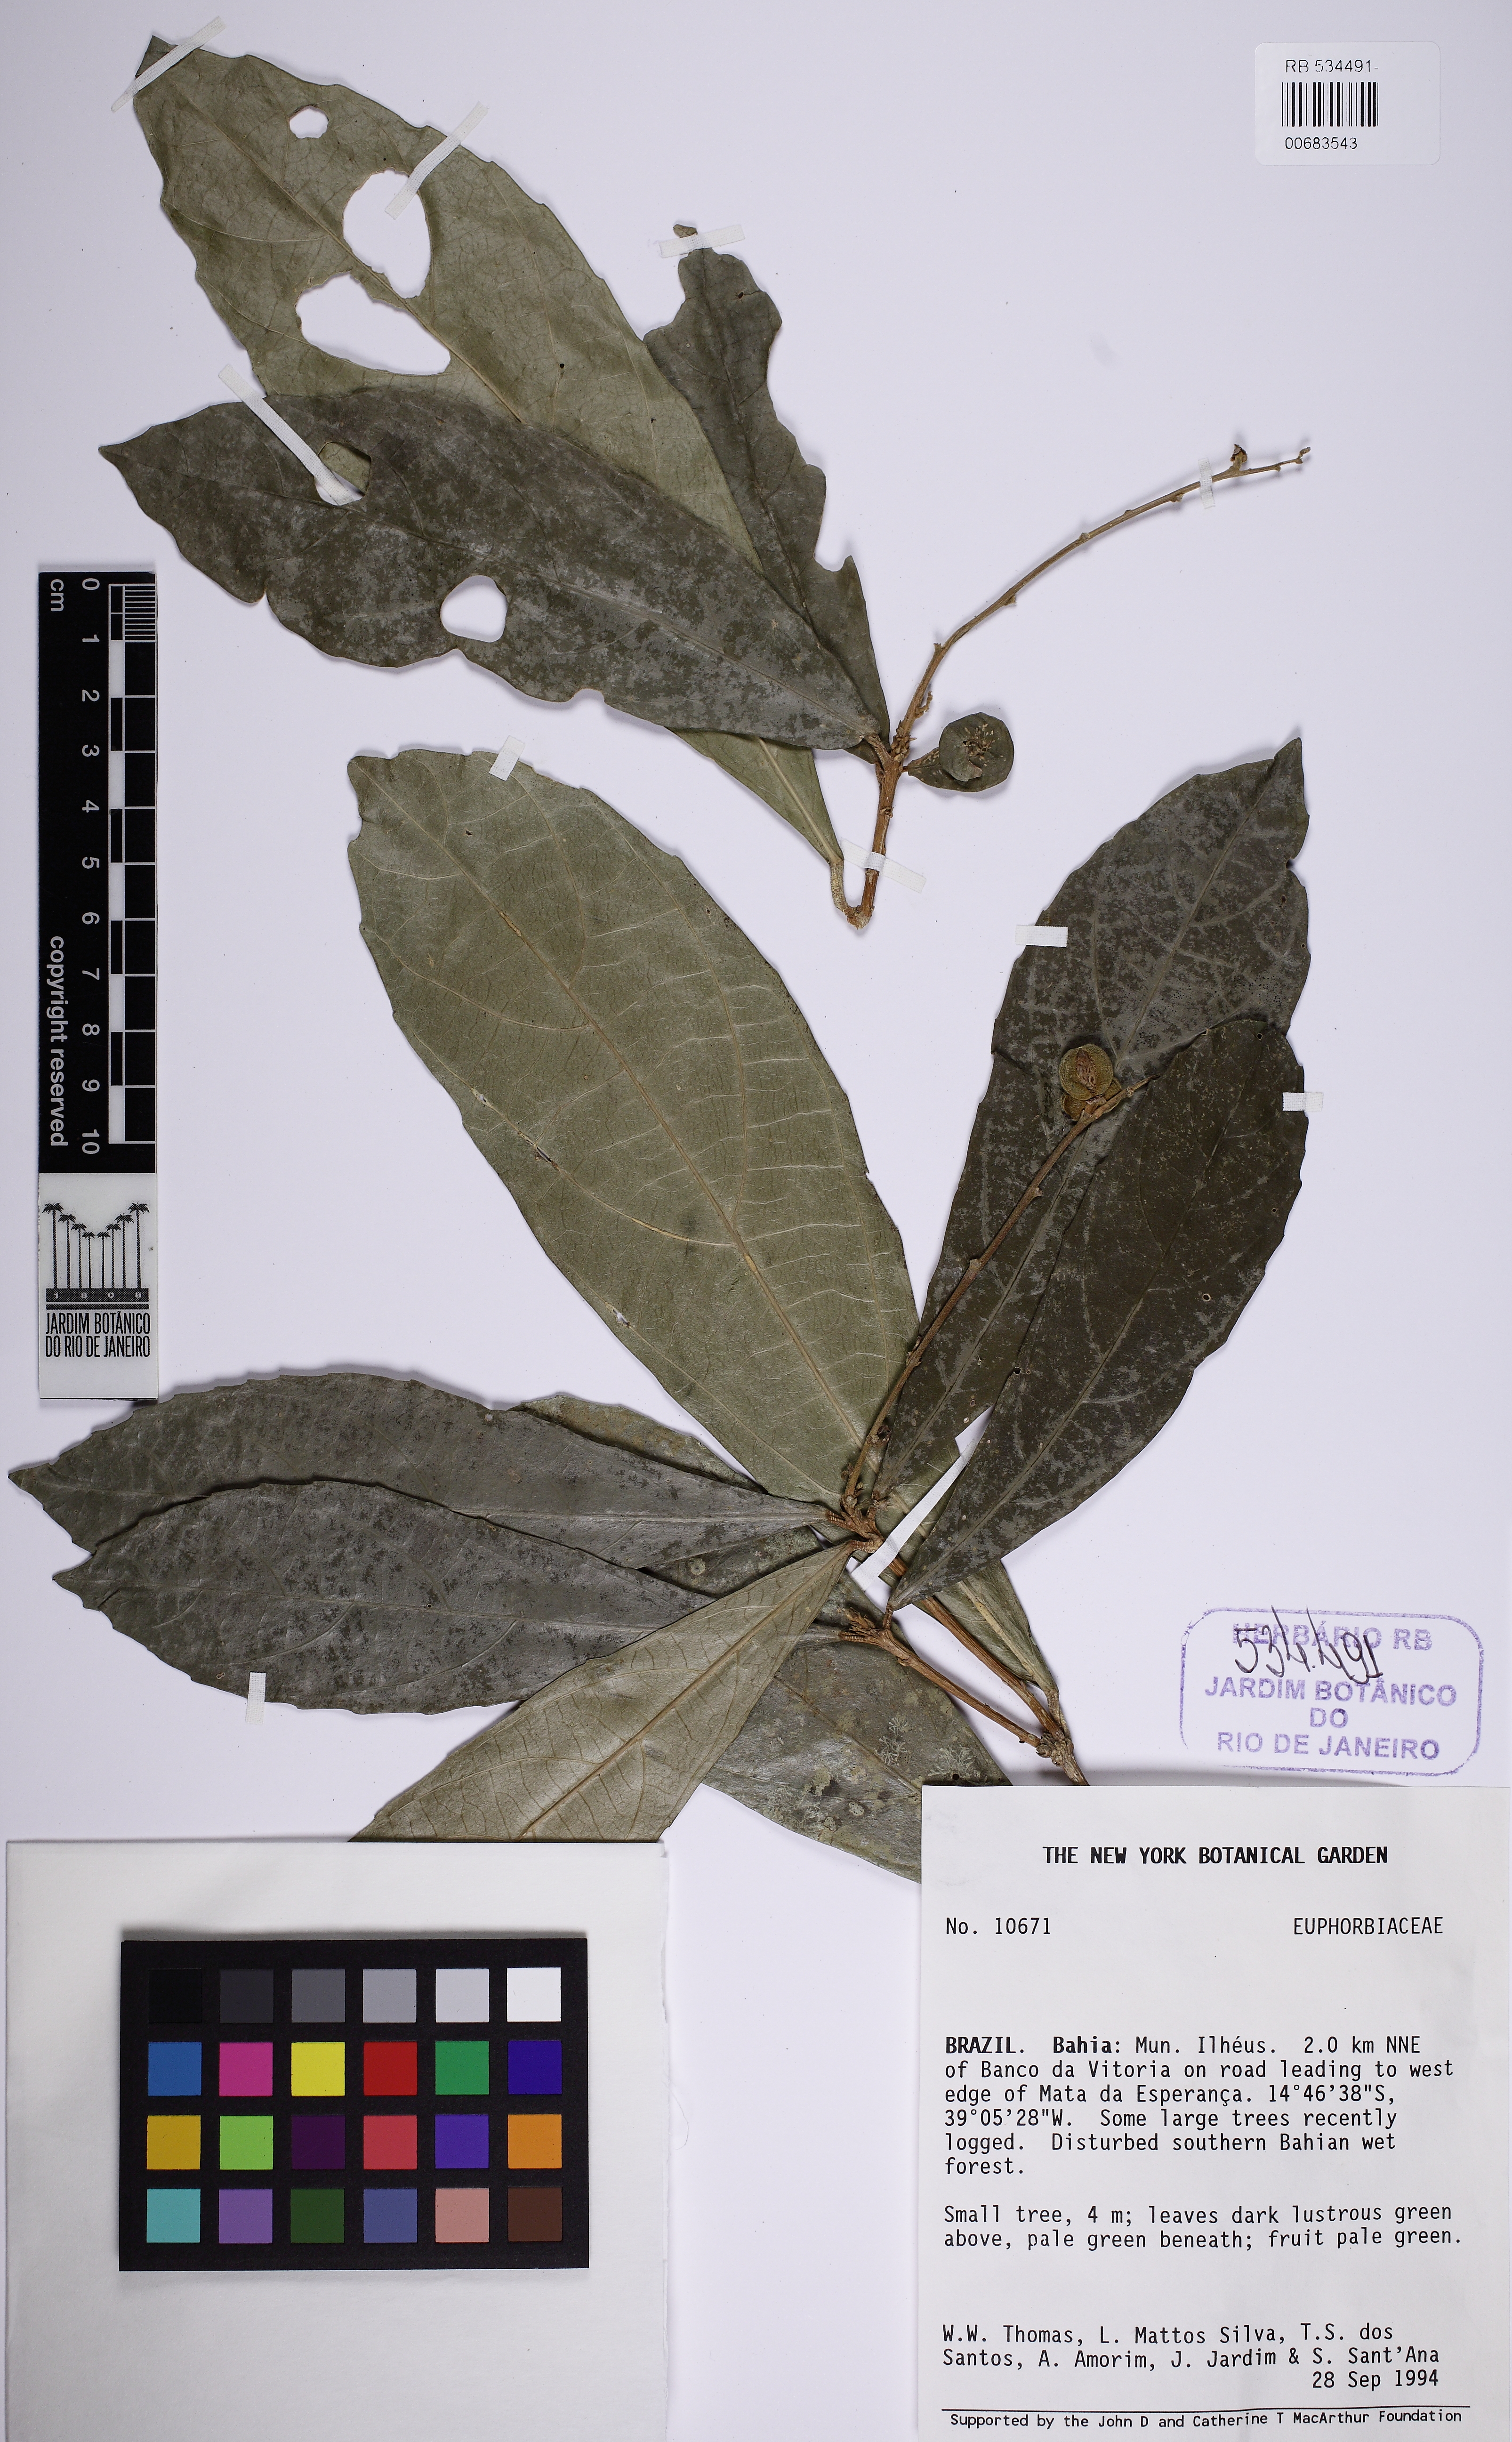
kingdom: Plantae
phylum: Tracheophyta
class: Magnoliopsida
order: Malpighiales
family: Euphorbiaceae
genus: Adenophaedra
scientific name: Adenophaedra
